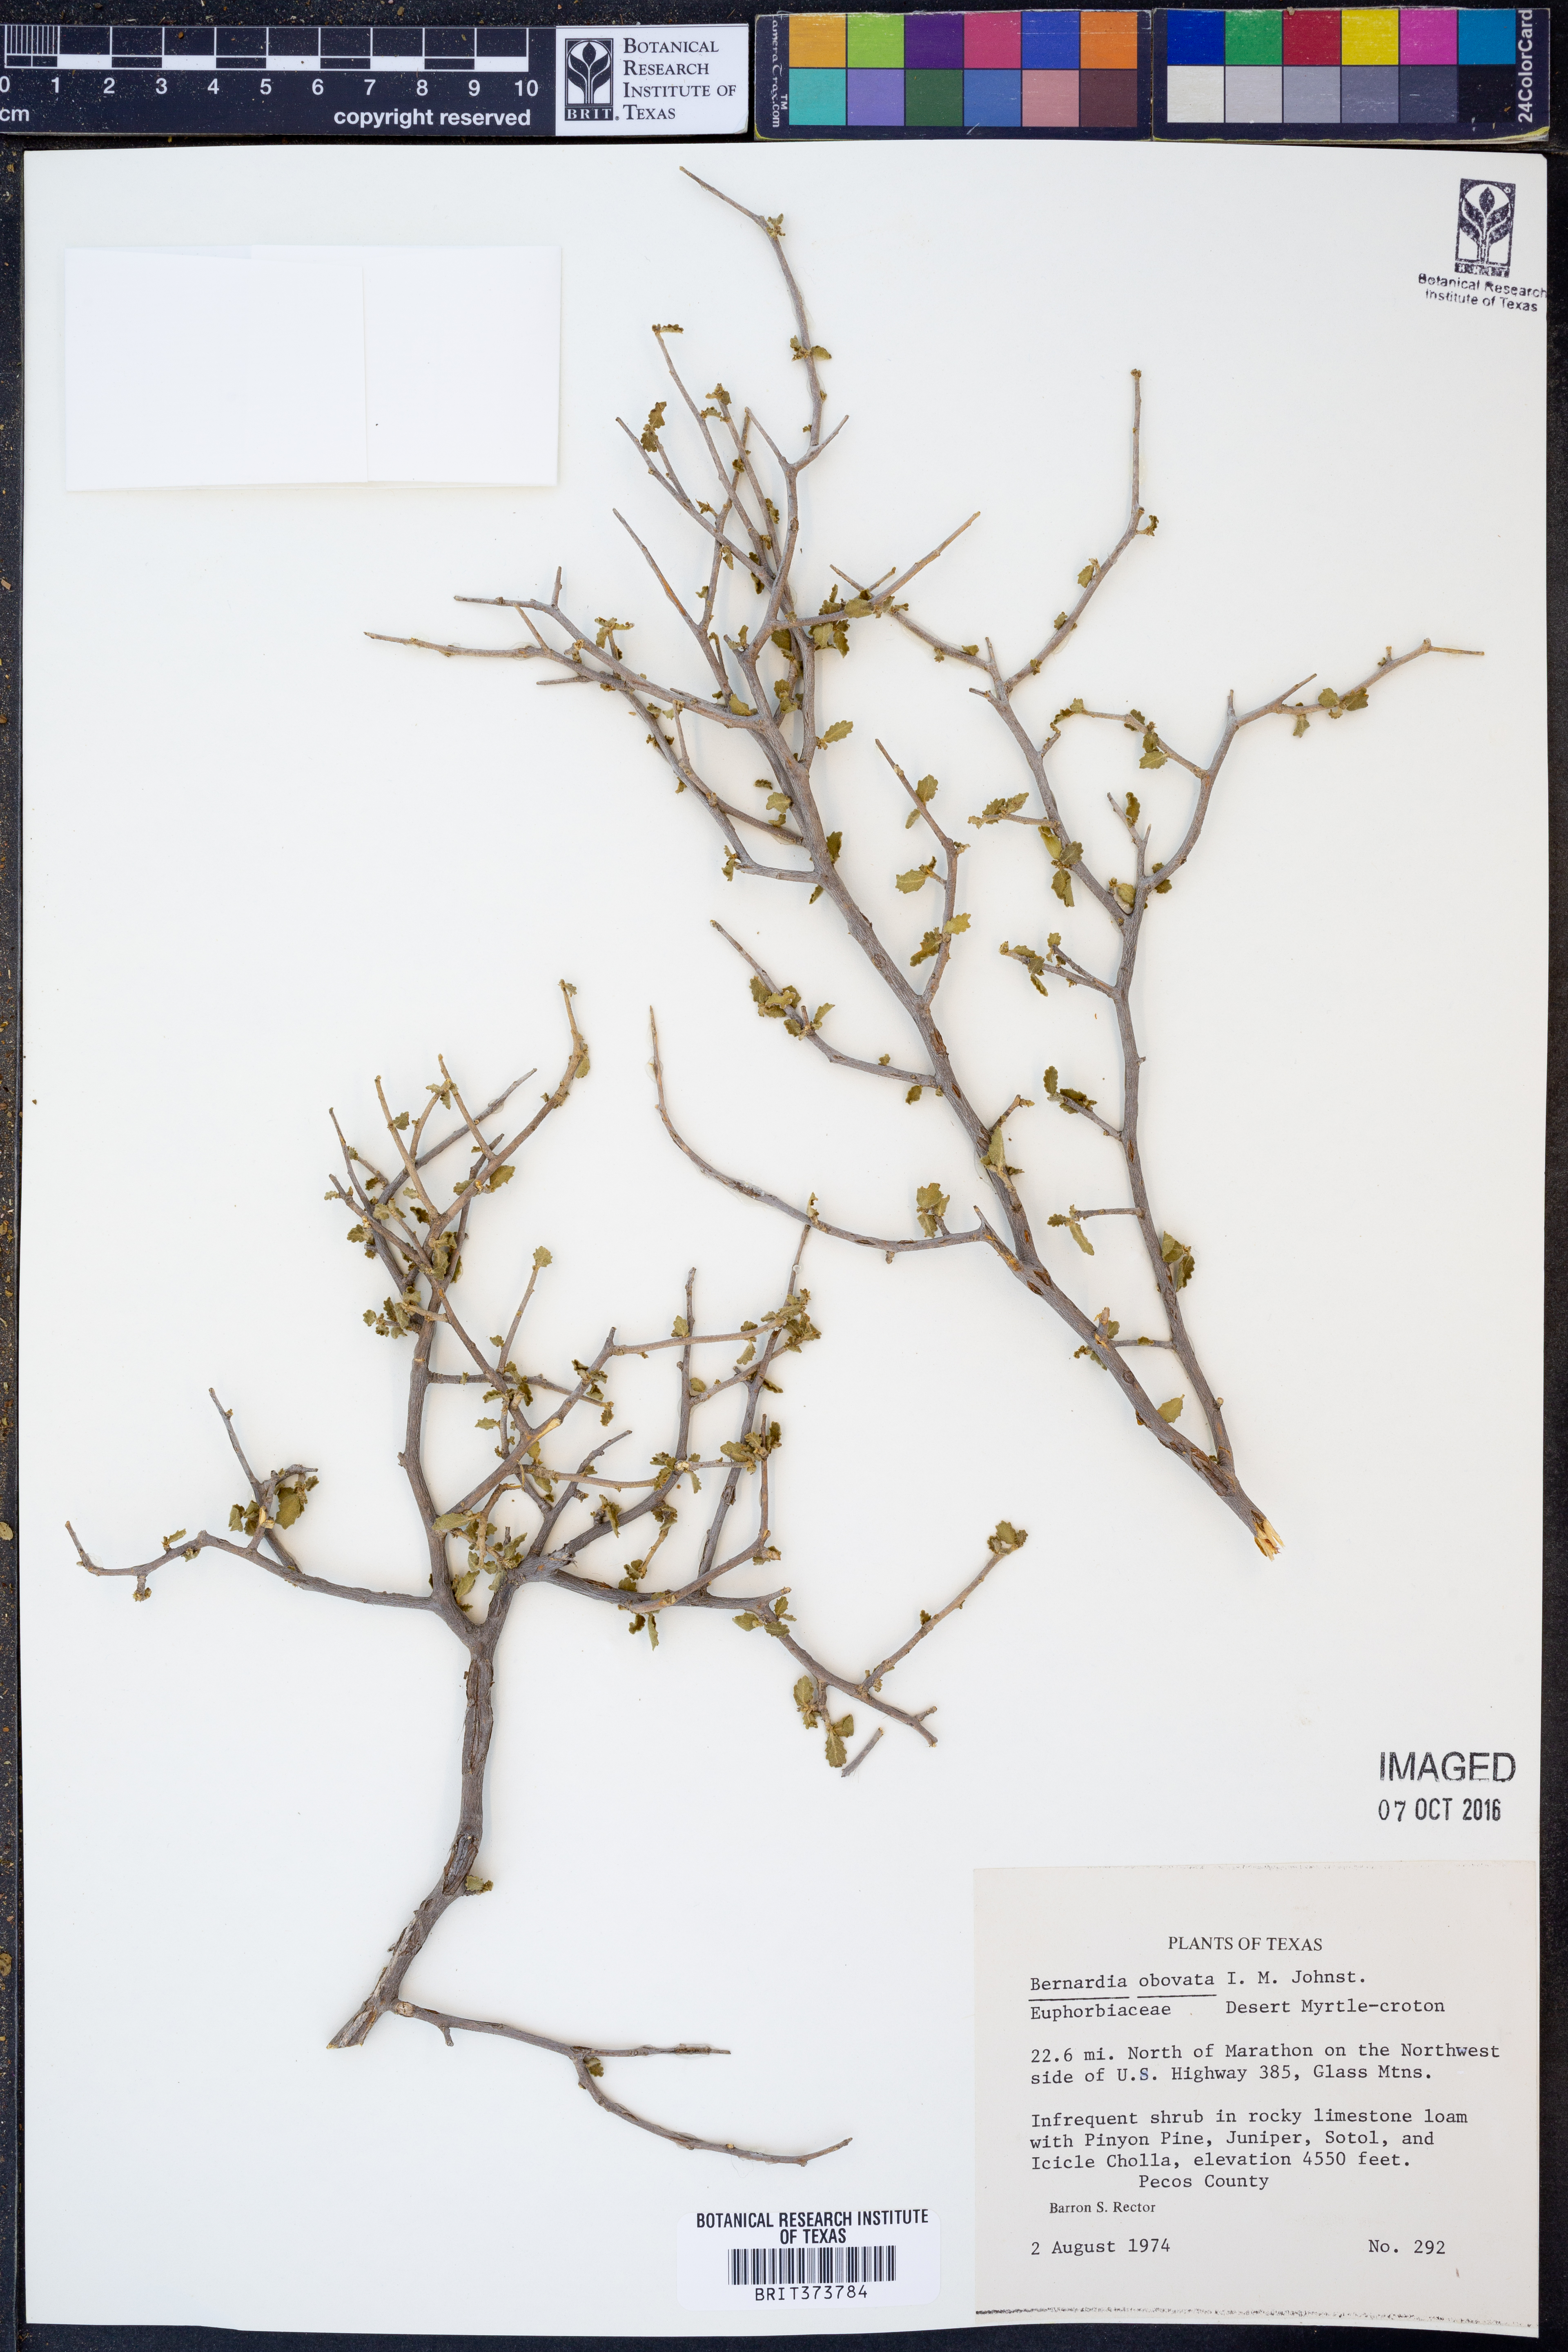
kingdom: Plantae
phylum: Tracheophyta
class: Magnoliopsida
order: Malpighiales
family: Euphorbiaceae
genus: Bernardia
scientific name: Bernardia obovata
